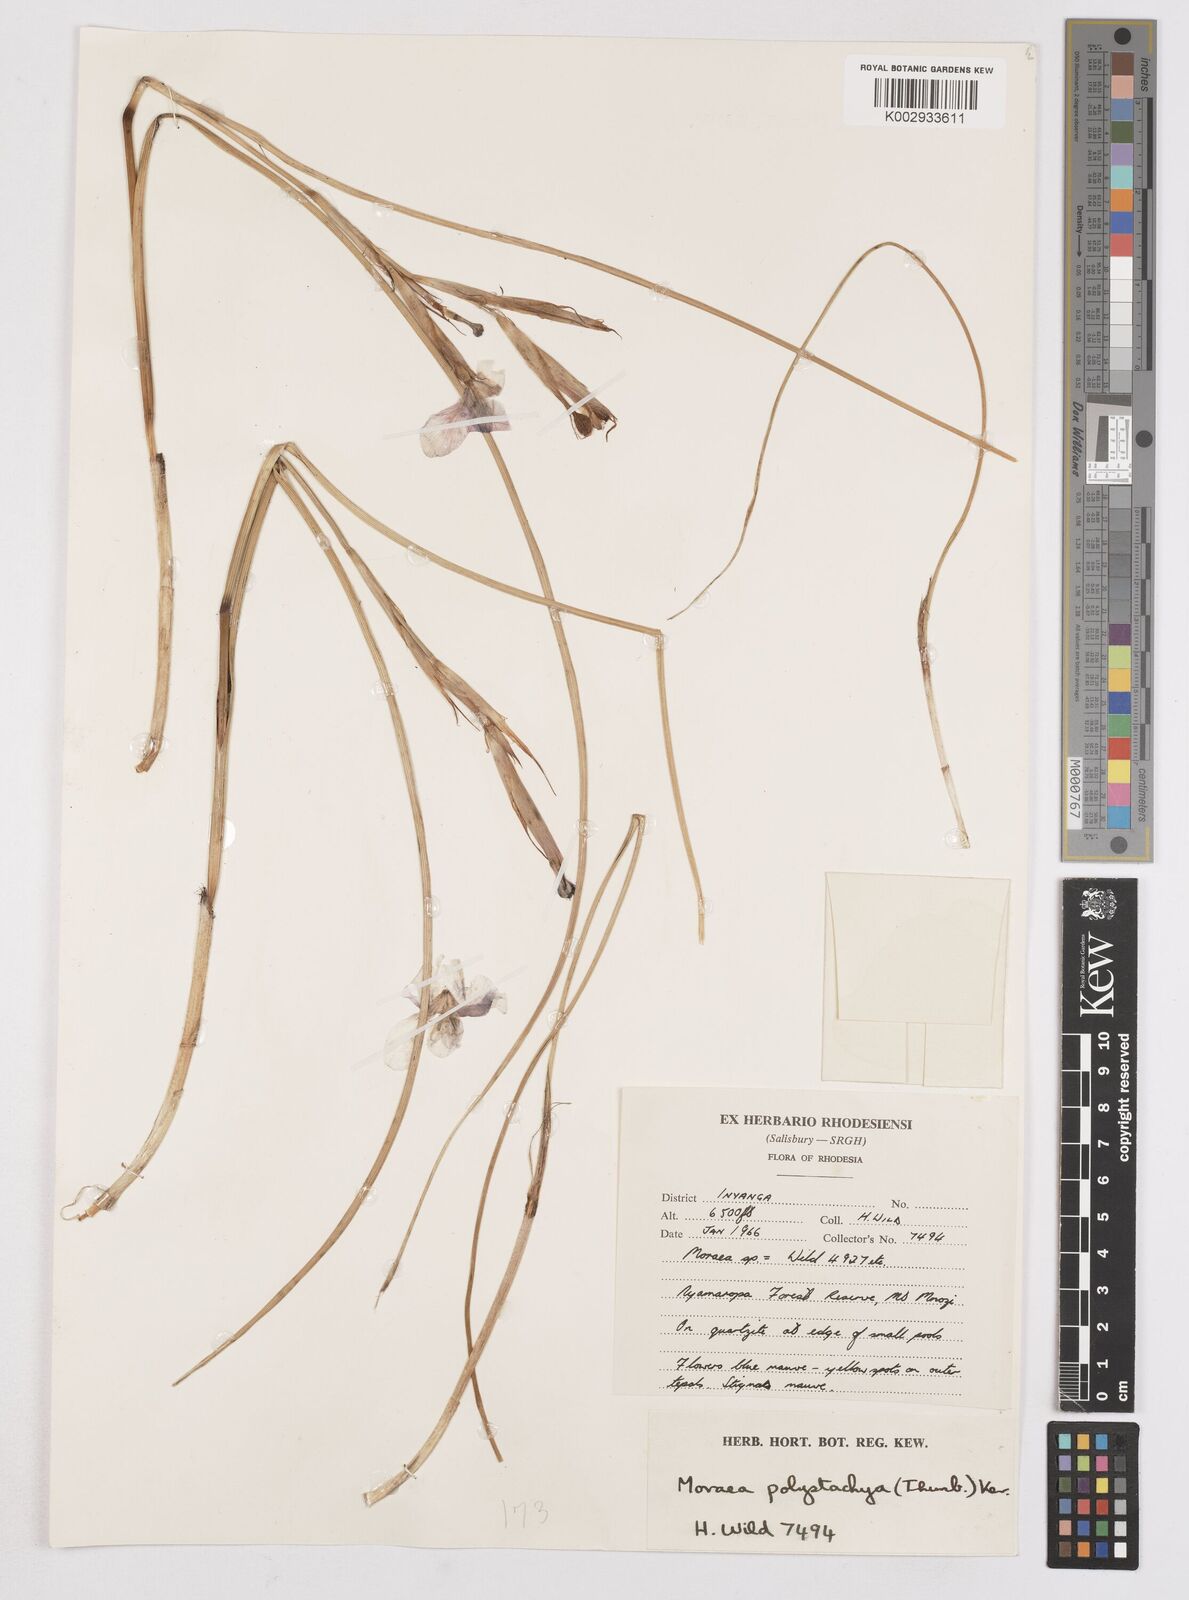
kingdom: Plantae
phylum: Tracheophyta
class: Liliopsida
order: Asparagales
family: Iridaceae
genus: Moraea
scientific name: Moraea carsonii
